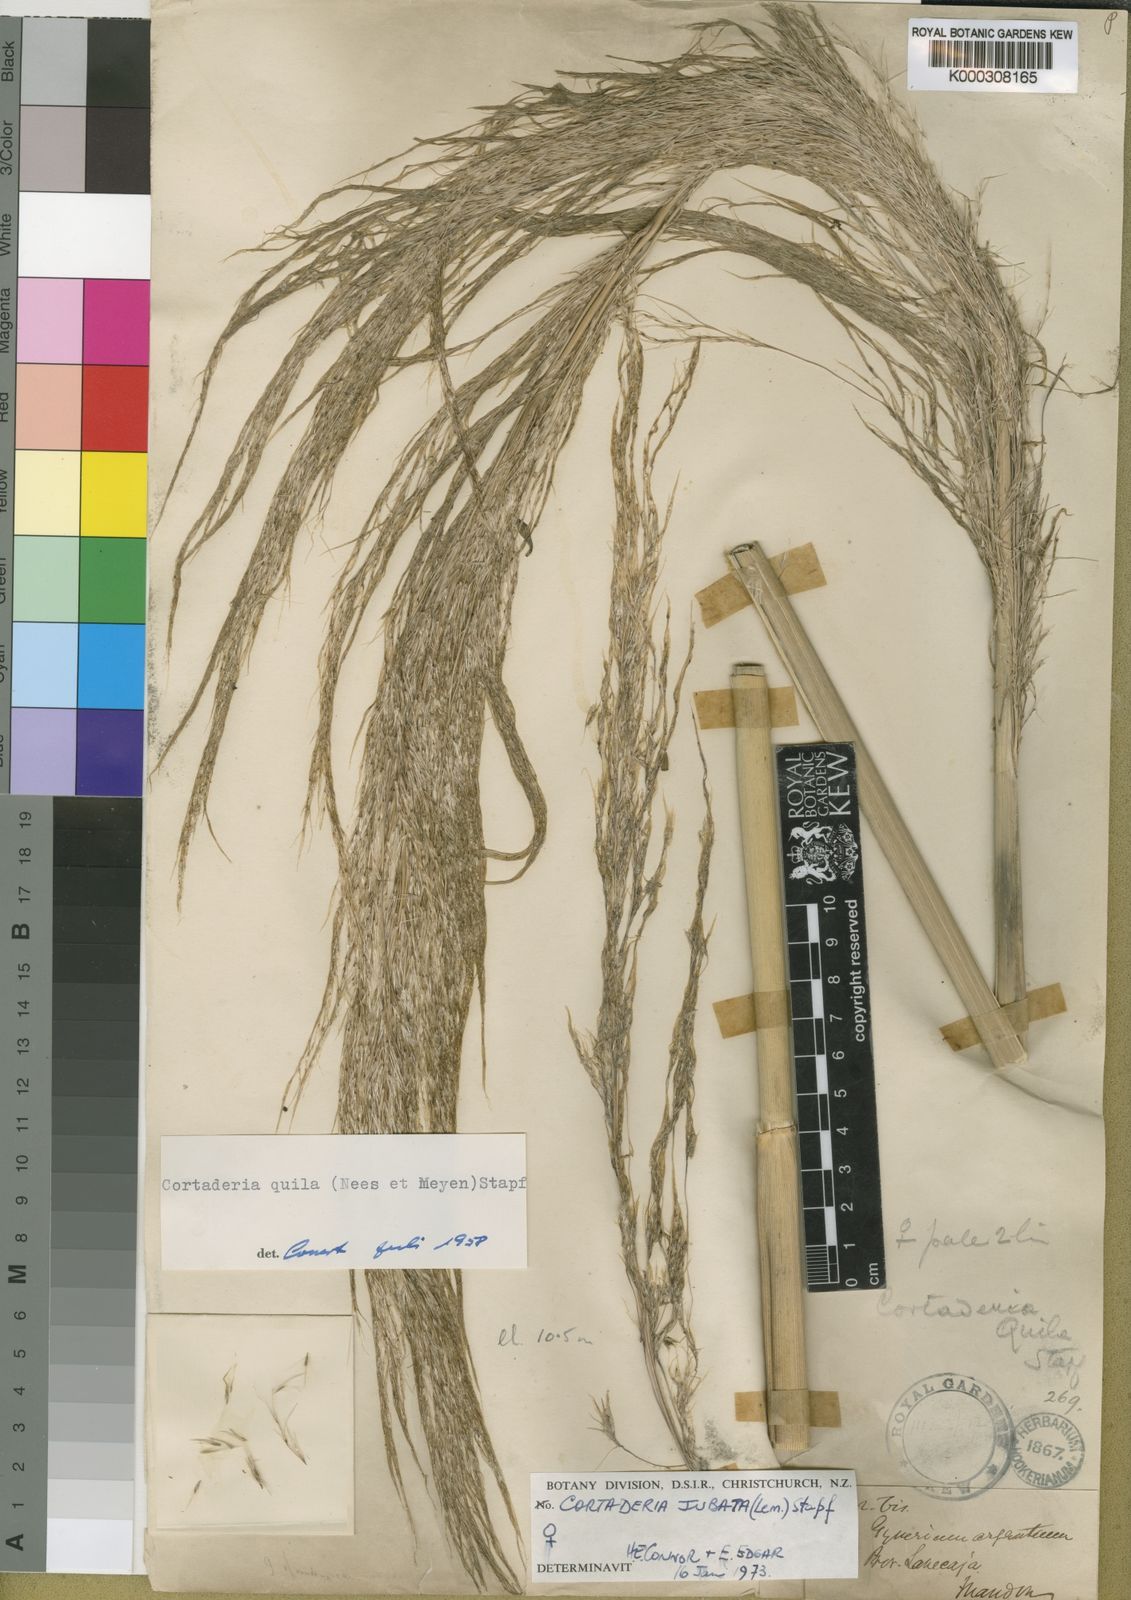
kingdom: Plantae
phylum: Tracheophyta
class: Liliopsida
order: Poales
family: Poaceae
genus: Cortaderia
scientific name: Cortaderia jubata
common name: Purple pampas grass
